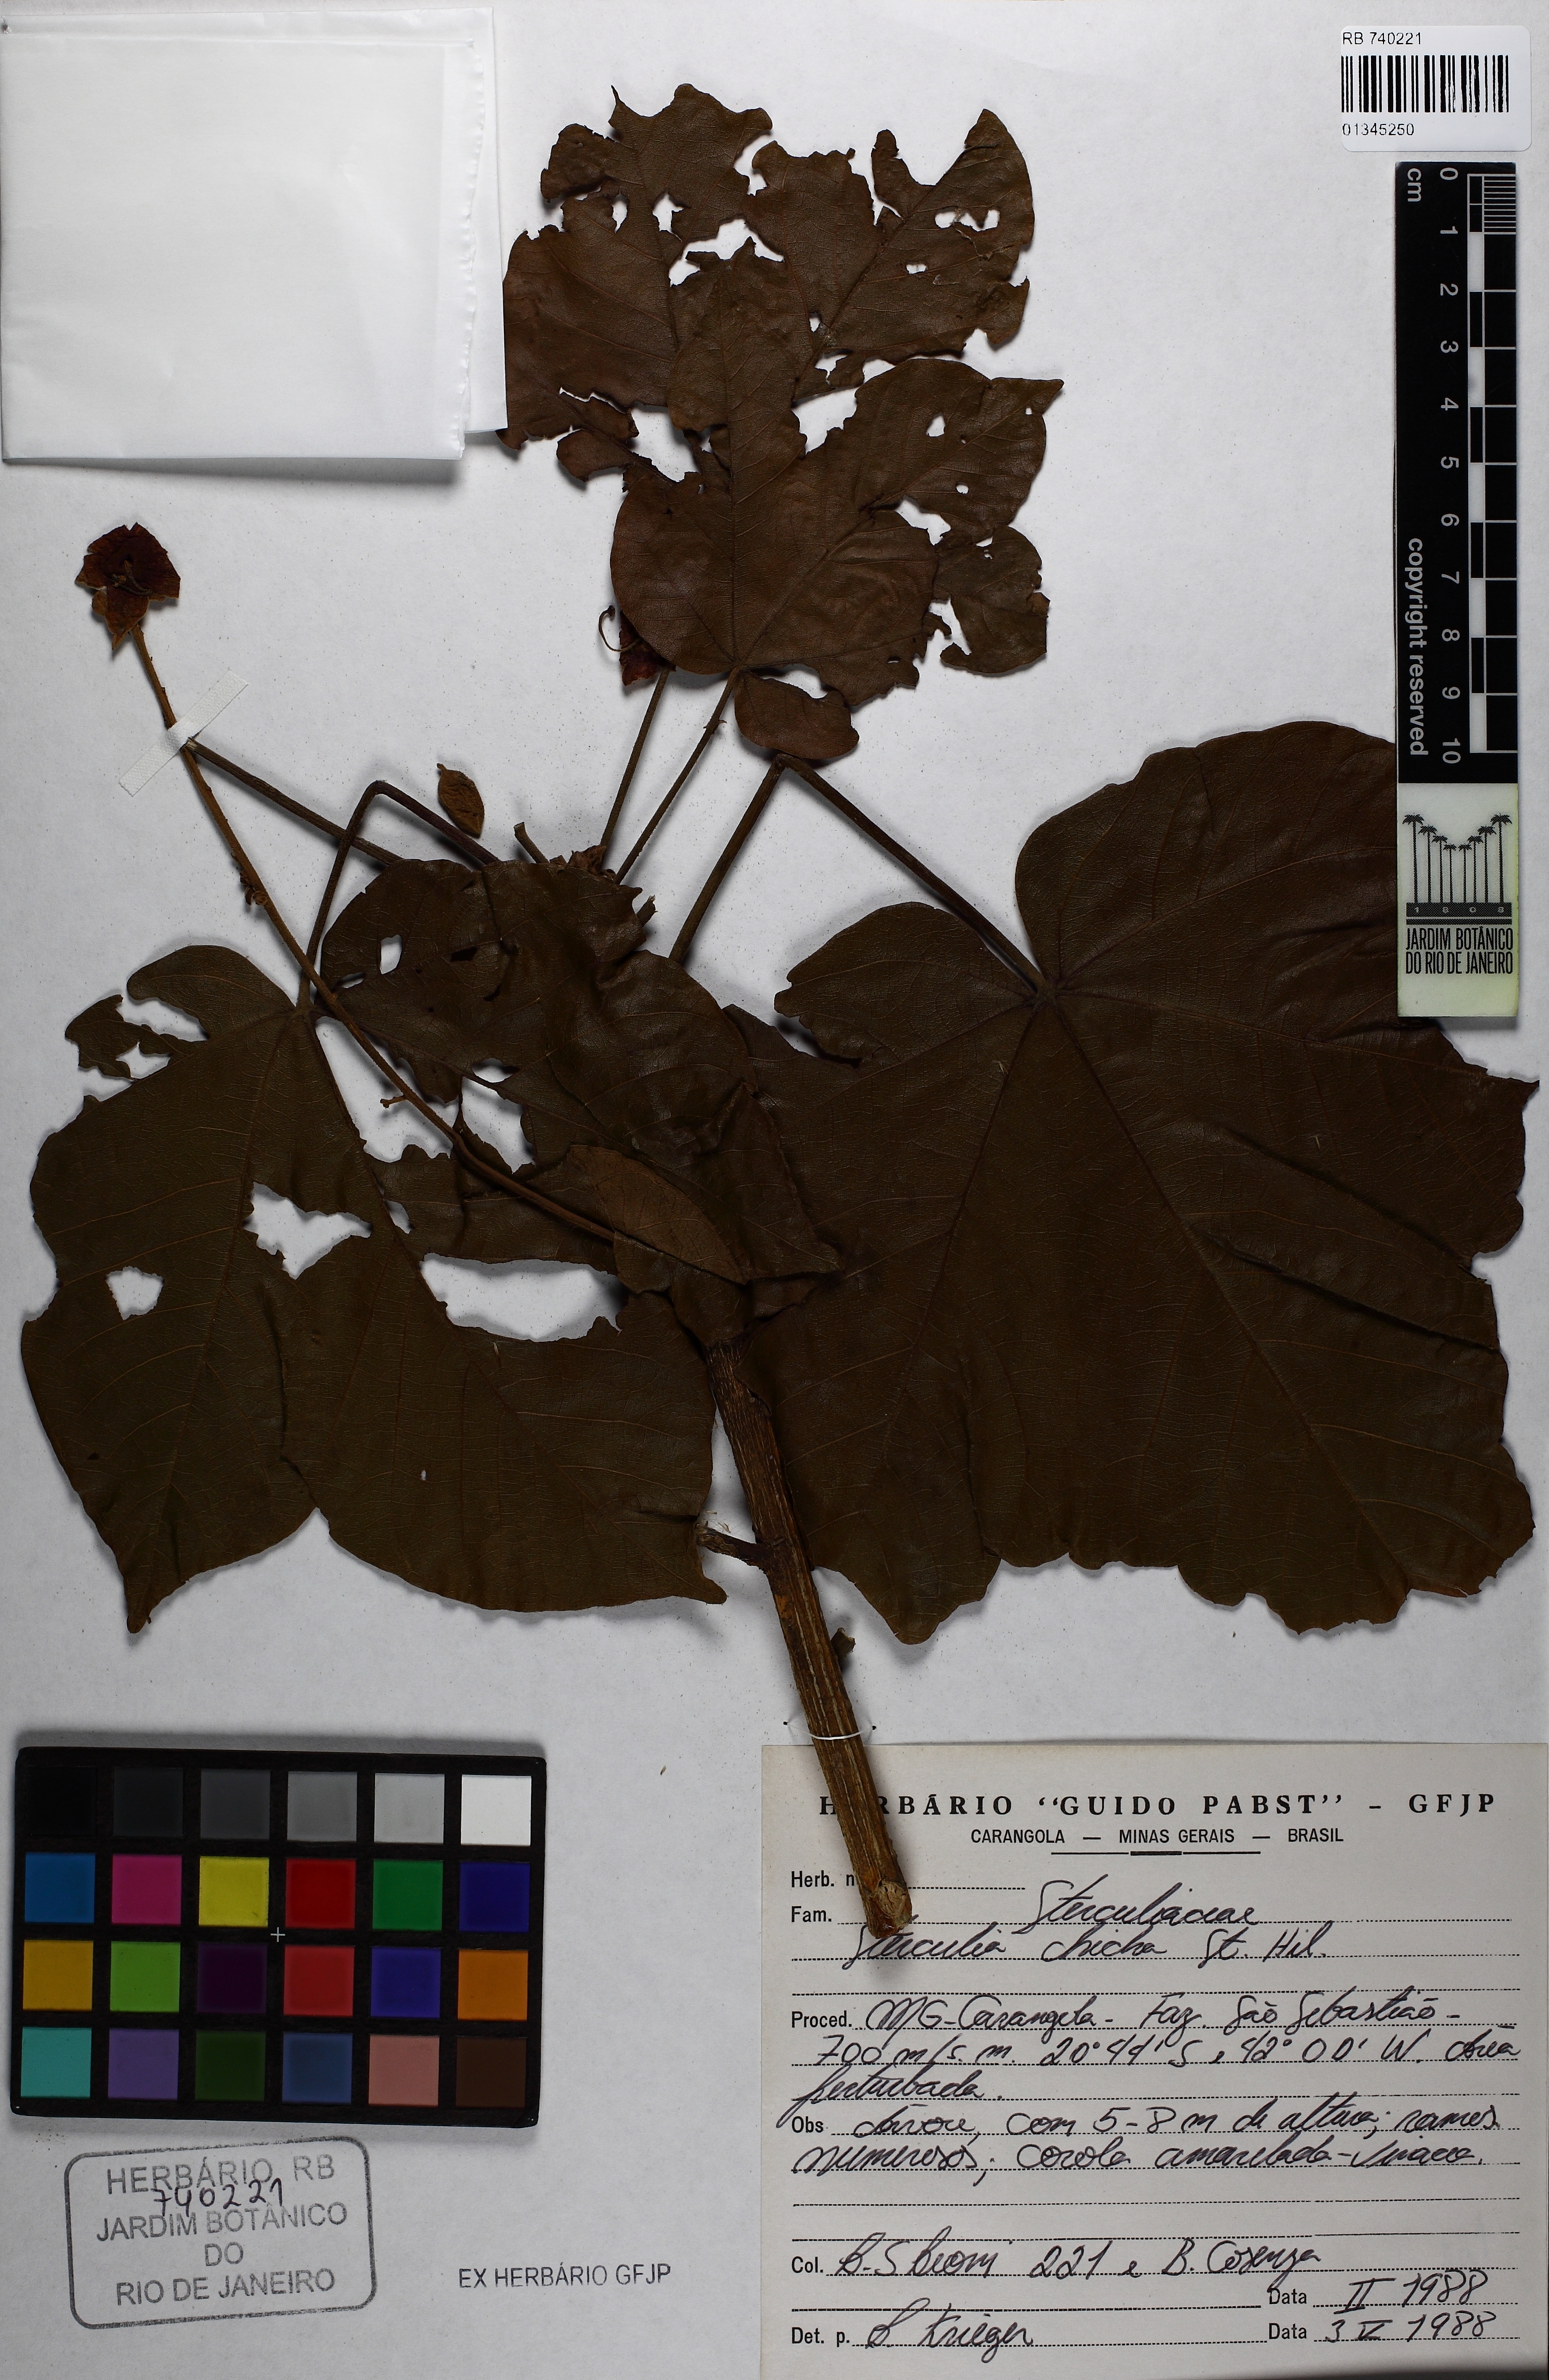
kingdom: Plantae
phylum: Tracheophyta
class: Magnoliopsida
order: Malvales
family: Malvaceae
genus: Sterculia
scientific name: Sterculia apetala
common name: Panama tree
